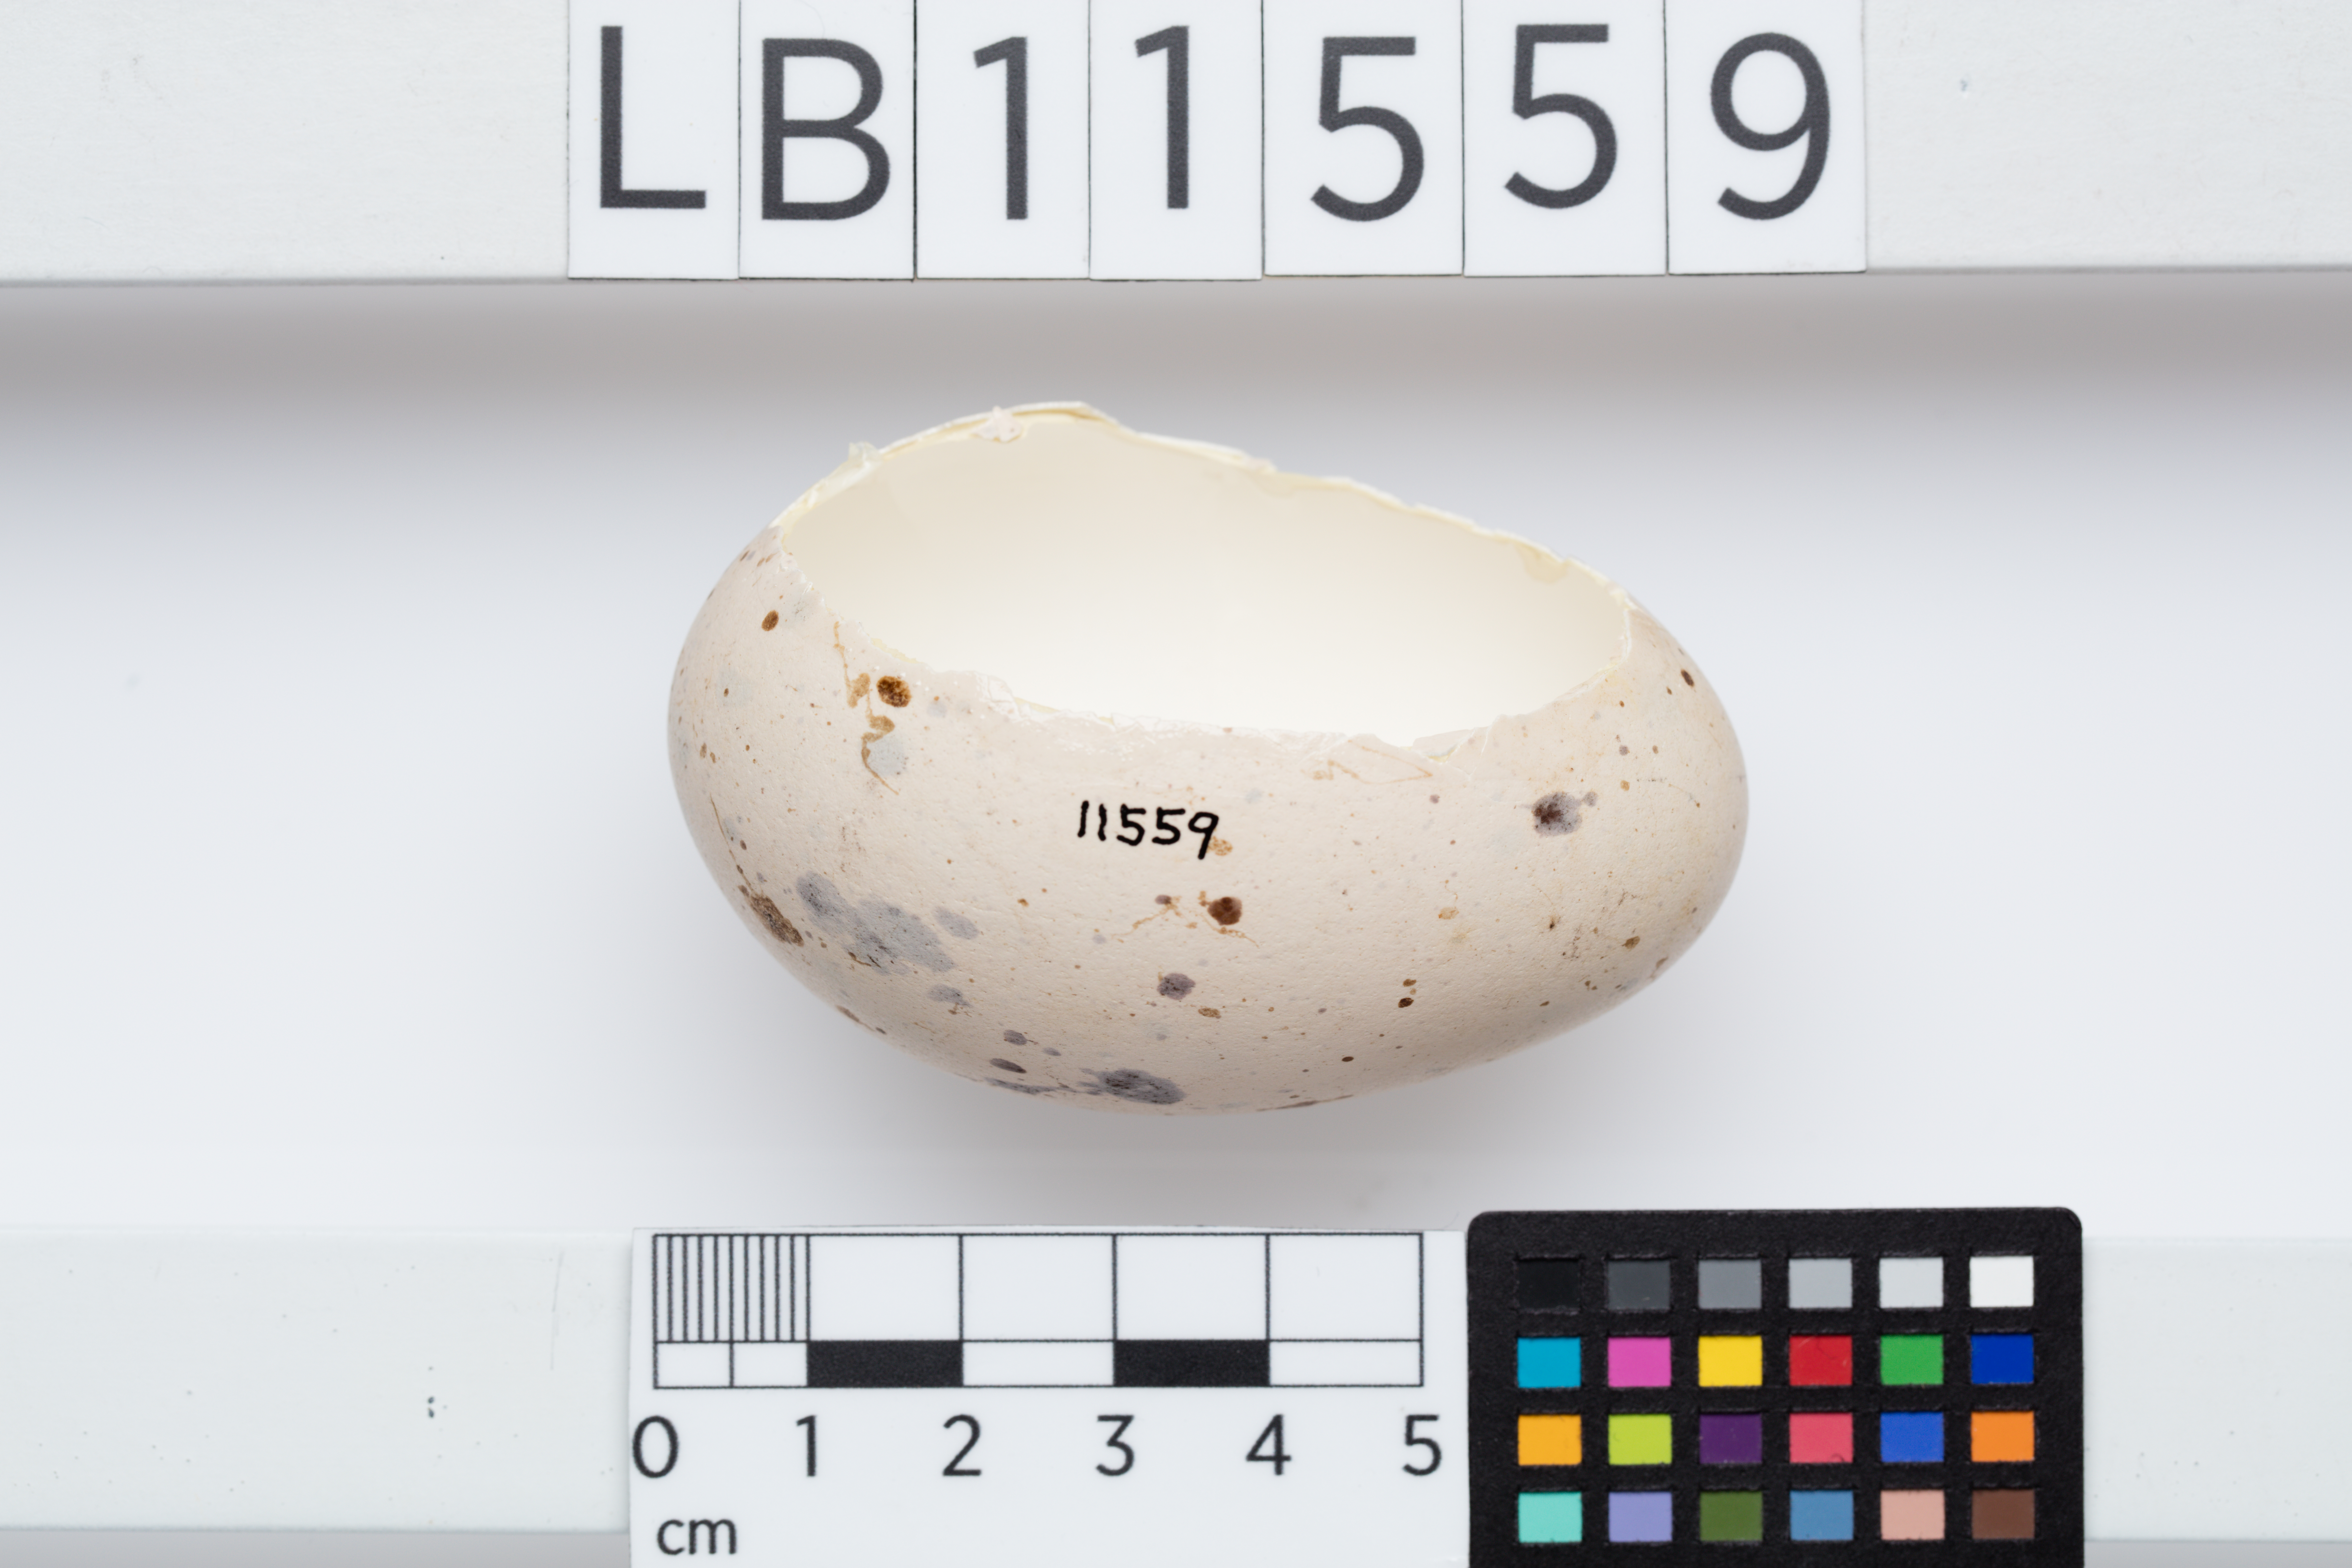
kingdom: Animalia
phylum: Chordata
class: Aves
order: Gruiformes
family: Rallidae
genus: Porphyrio
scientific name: Porphyrio hochstetteri
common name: South island takahe
